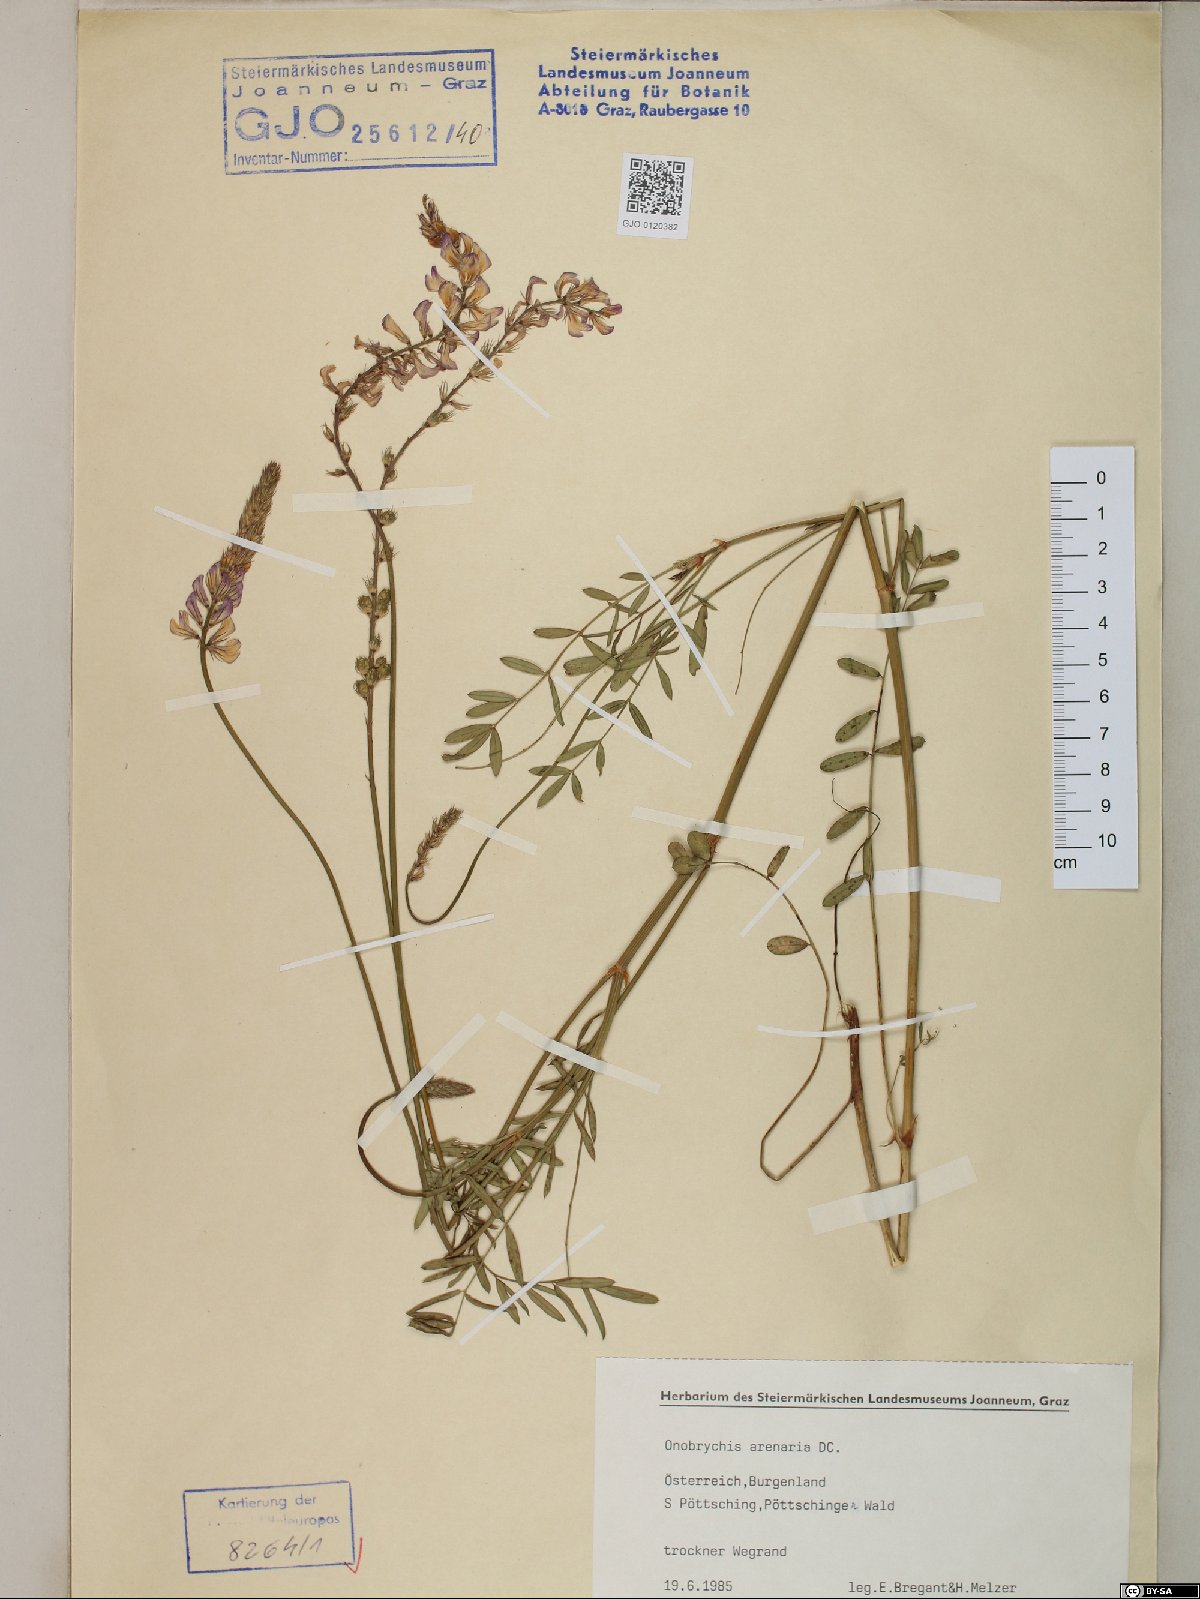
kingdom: Plantae
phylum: Tracheophyta
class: Magnoliopsida
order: Fabales
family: Fabaceae
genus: Onobrychis
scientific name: Onobrychis arenaria
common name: Sand esparcet
